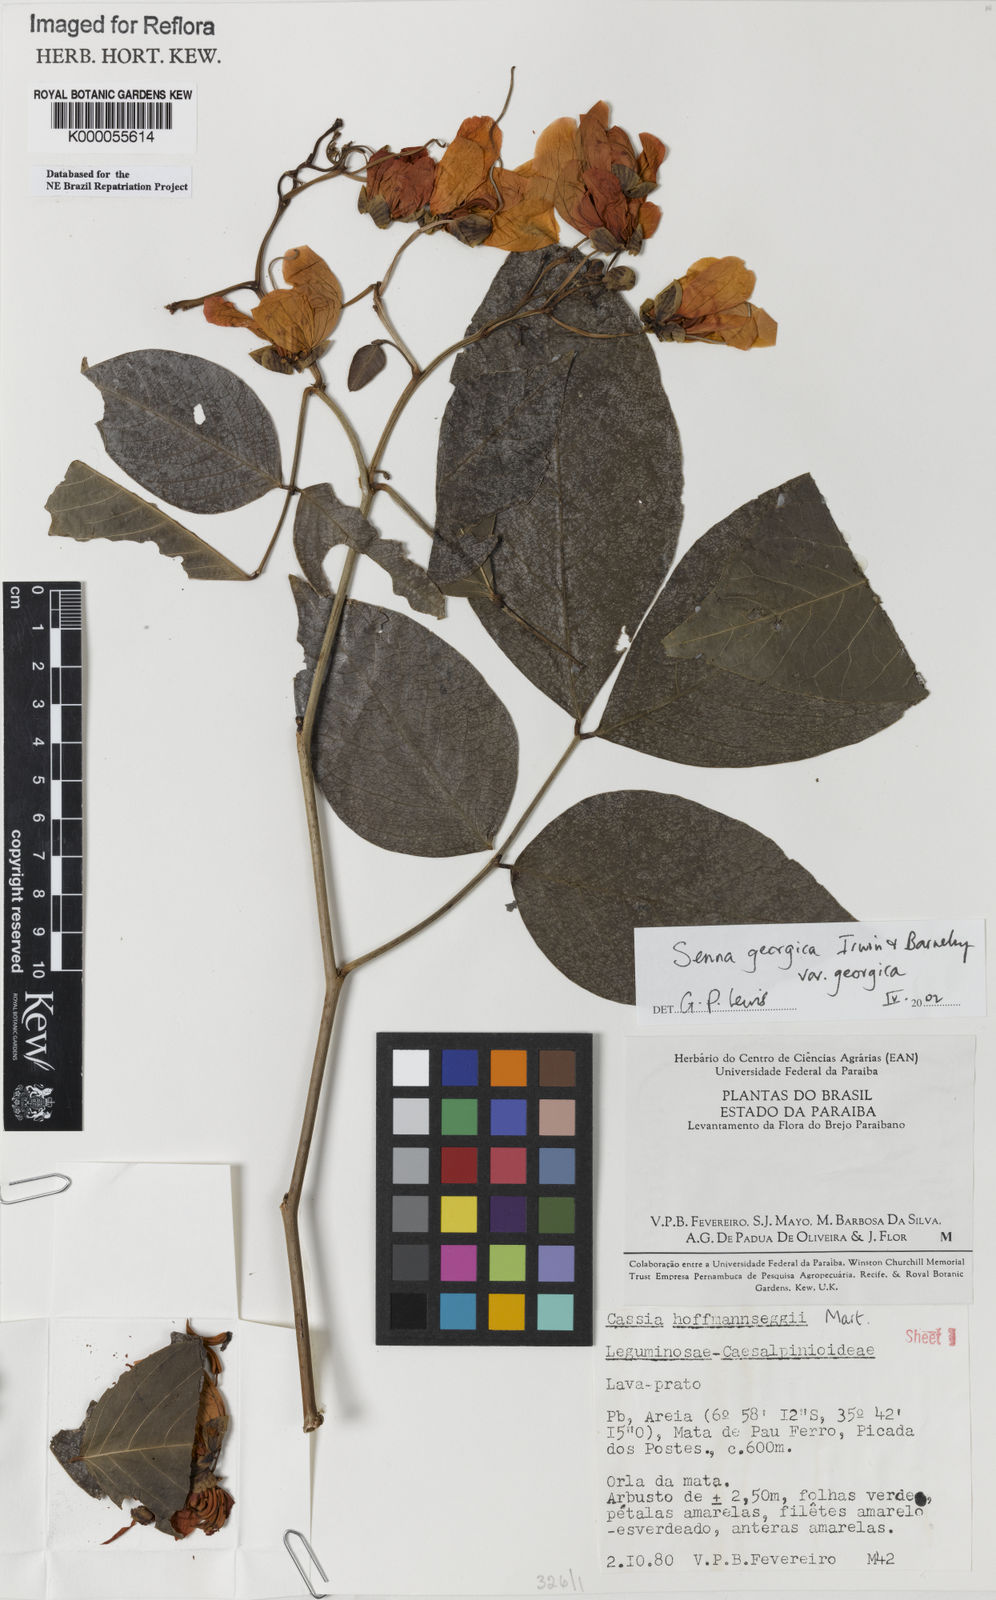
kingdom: Plantae
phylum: Tracheophyta
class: Magnoliopsida
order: Fabales
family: Fabaceae
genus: Senna
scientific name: Senna georgica
